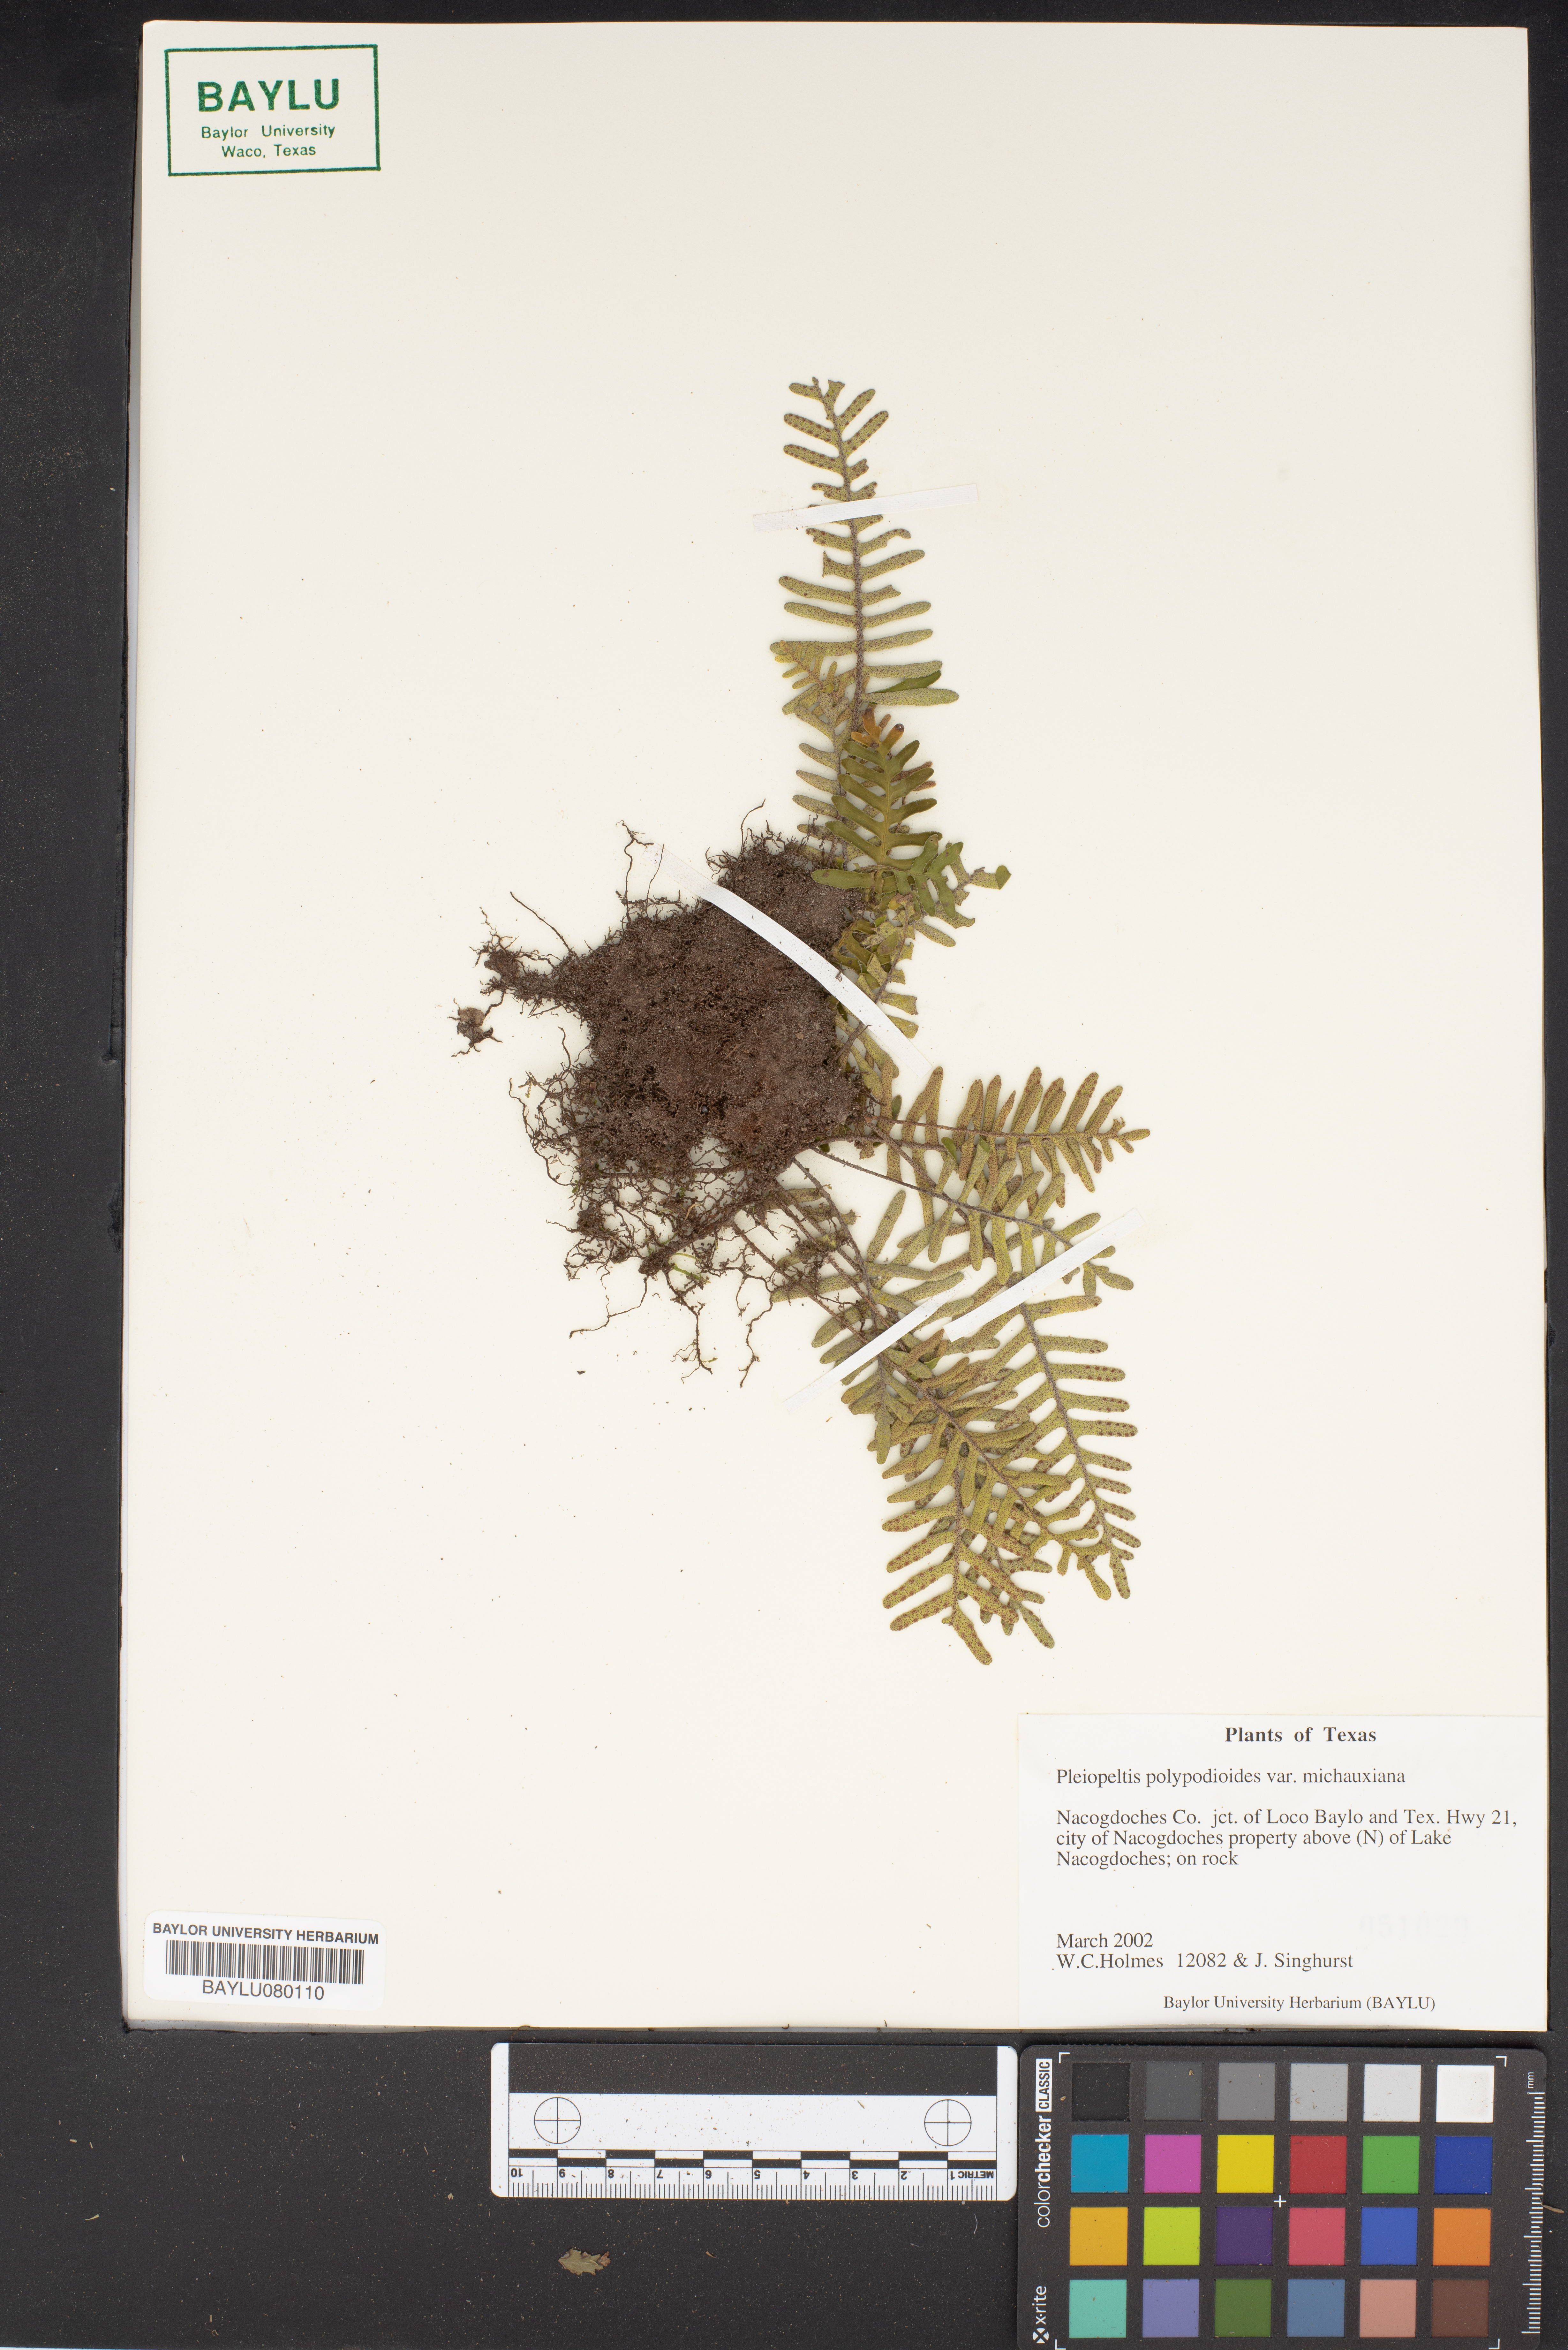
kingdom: Plantae
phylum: Tracheophyta
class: Polypodiopsida
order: Polypodiales
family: Polypodiaceae
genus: Pleopeltis
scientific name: Pleopeltis michauxiana
